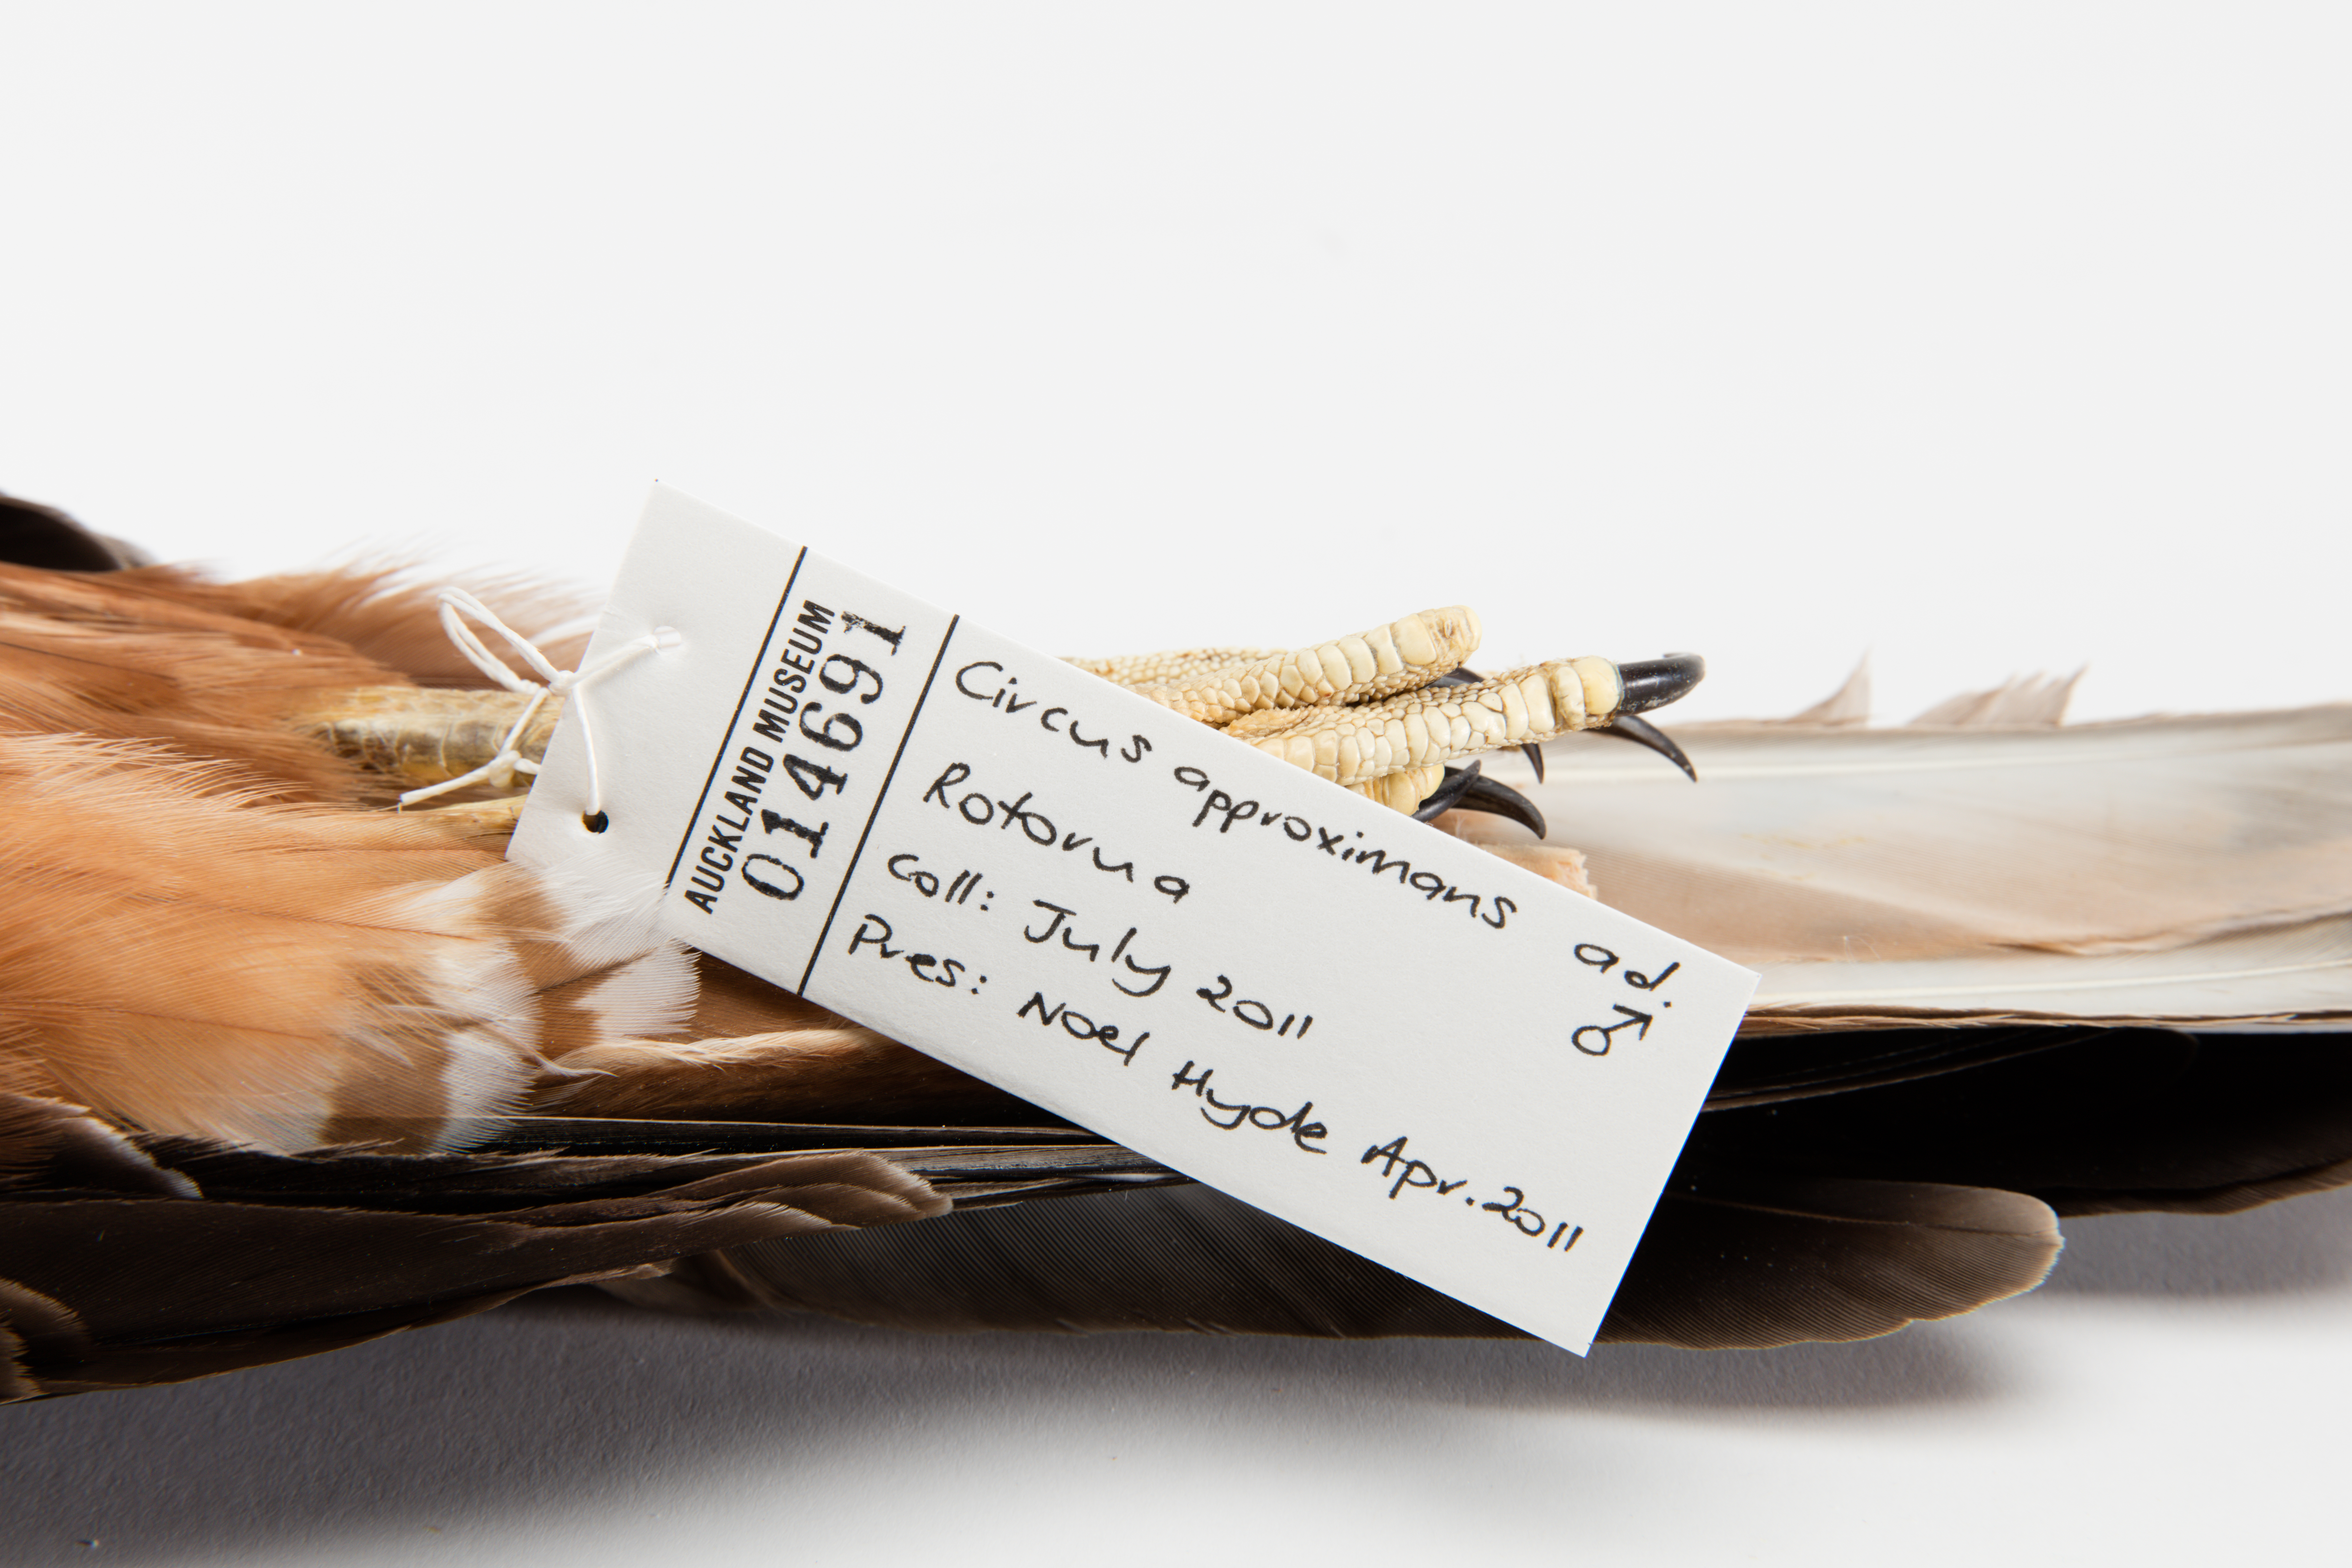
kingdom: Animalia
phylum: Chordata
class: Aves
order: Accipitriformes
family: Accipitridae
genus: Circus
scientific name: Circus approximans
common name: Swamp harrier
